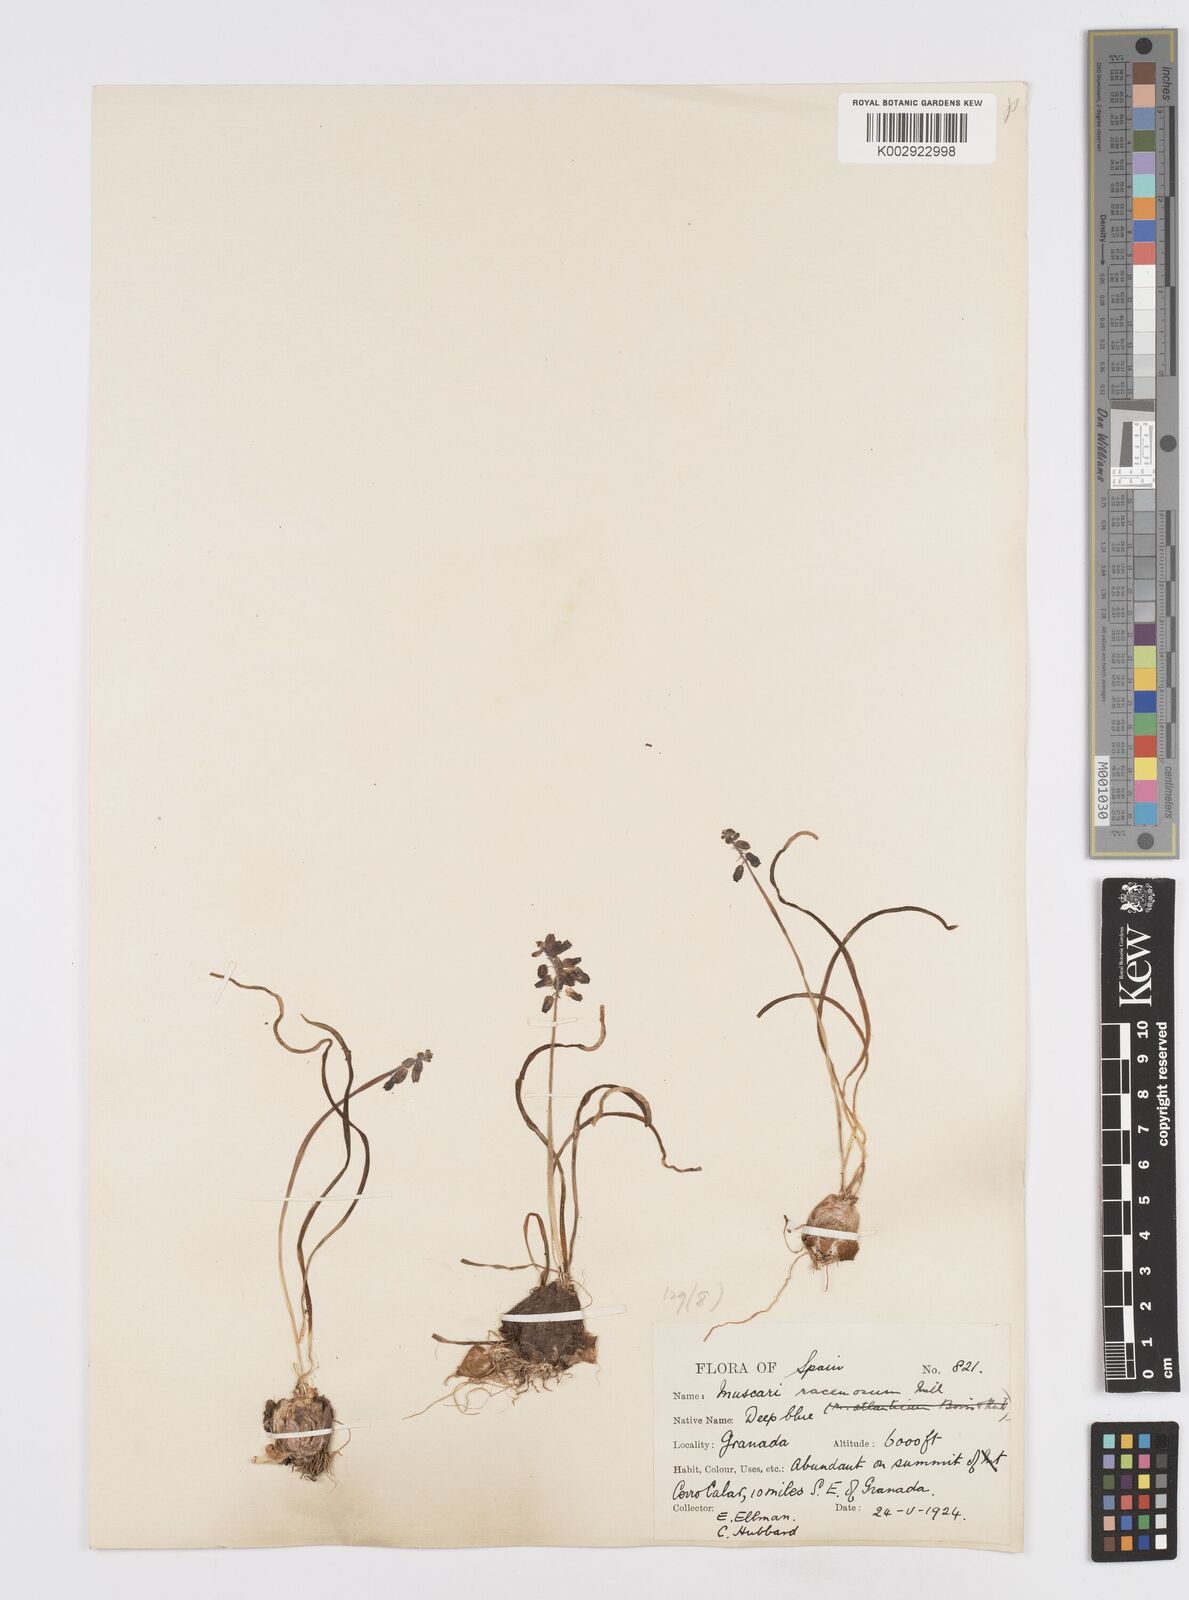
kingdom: Plantae
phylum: Tracheophyta
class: Liliopsida
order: Asparagales
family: Asparagaceae
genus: Muscarimia
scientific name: Muscarimia muscari
